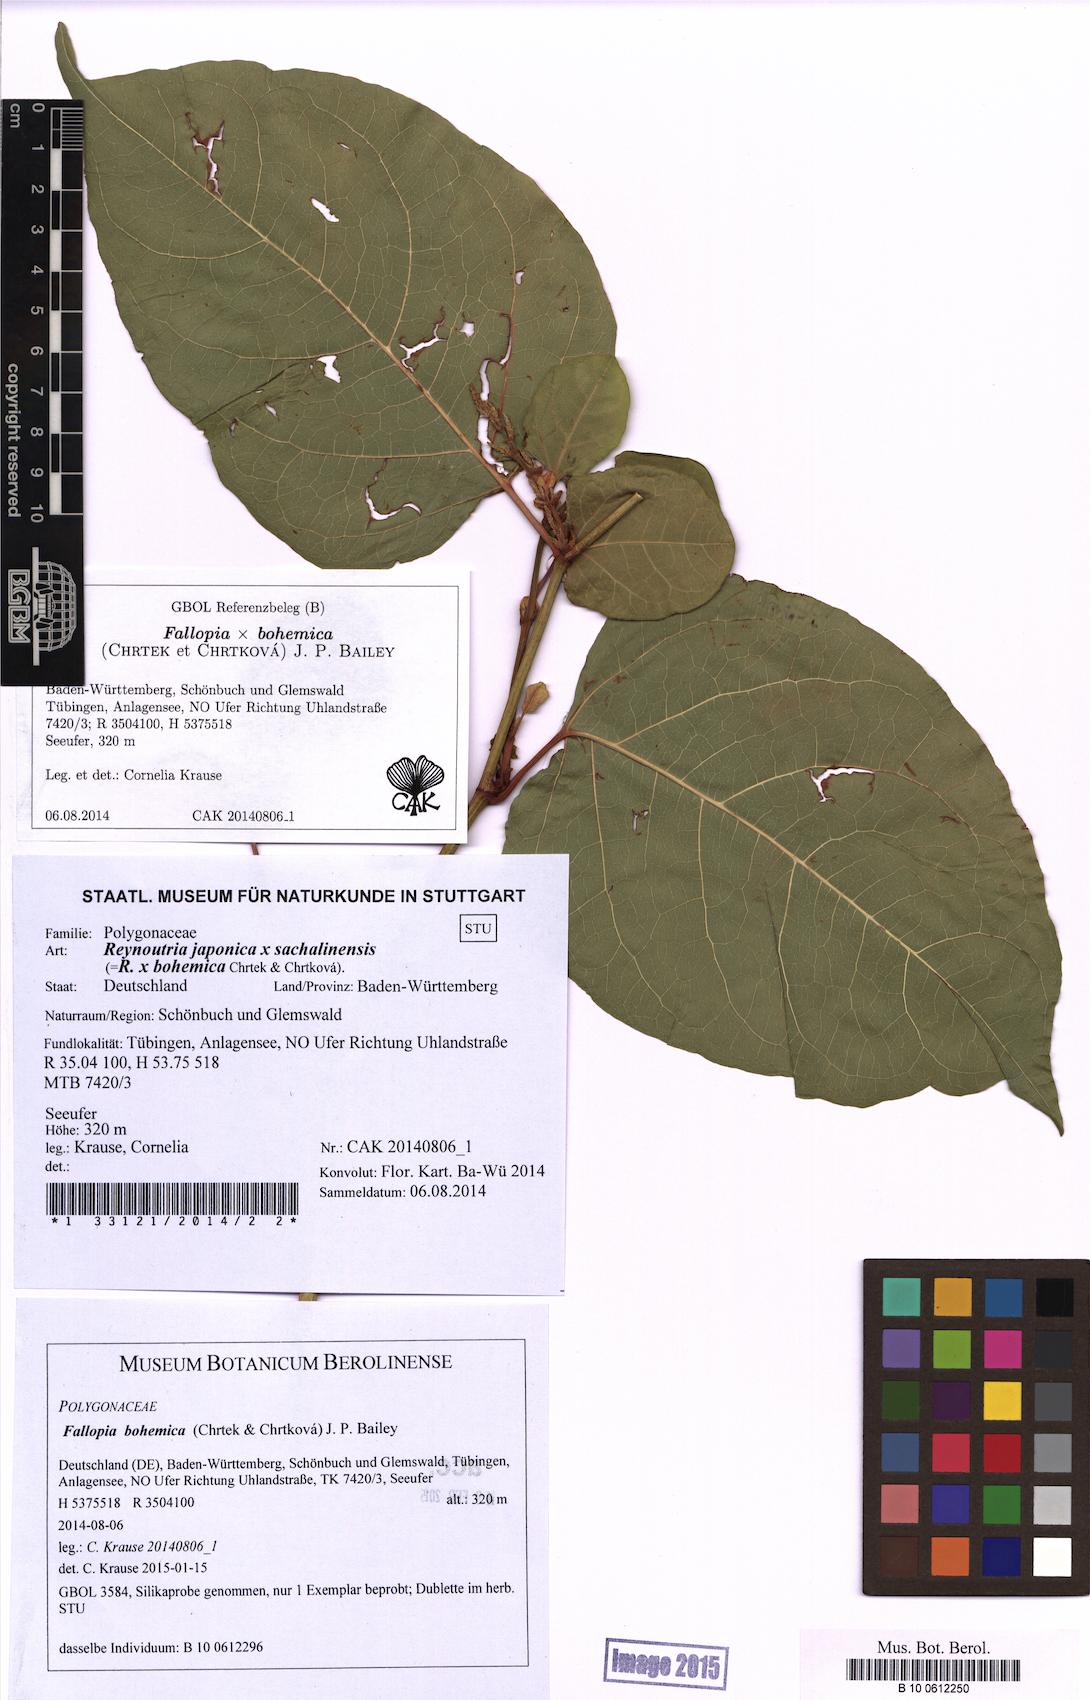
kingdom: Plantae
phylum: Tracheophyta
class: Magnoliopsida
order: Caryophyllales
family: Polygonaceae
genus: Reynoutria
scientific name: Reynoutria bohemica
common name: Bohemian knotweed
